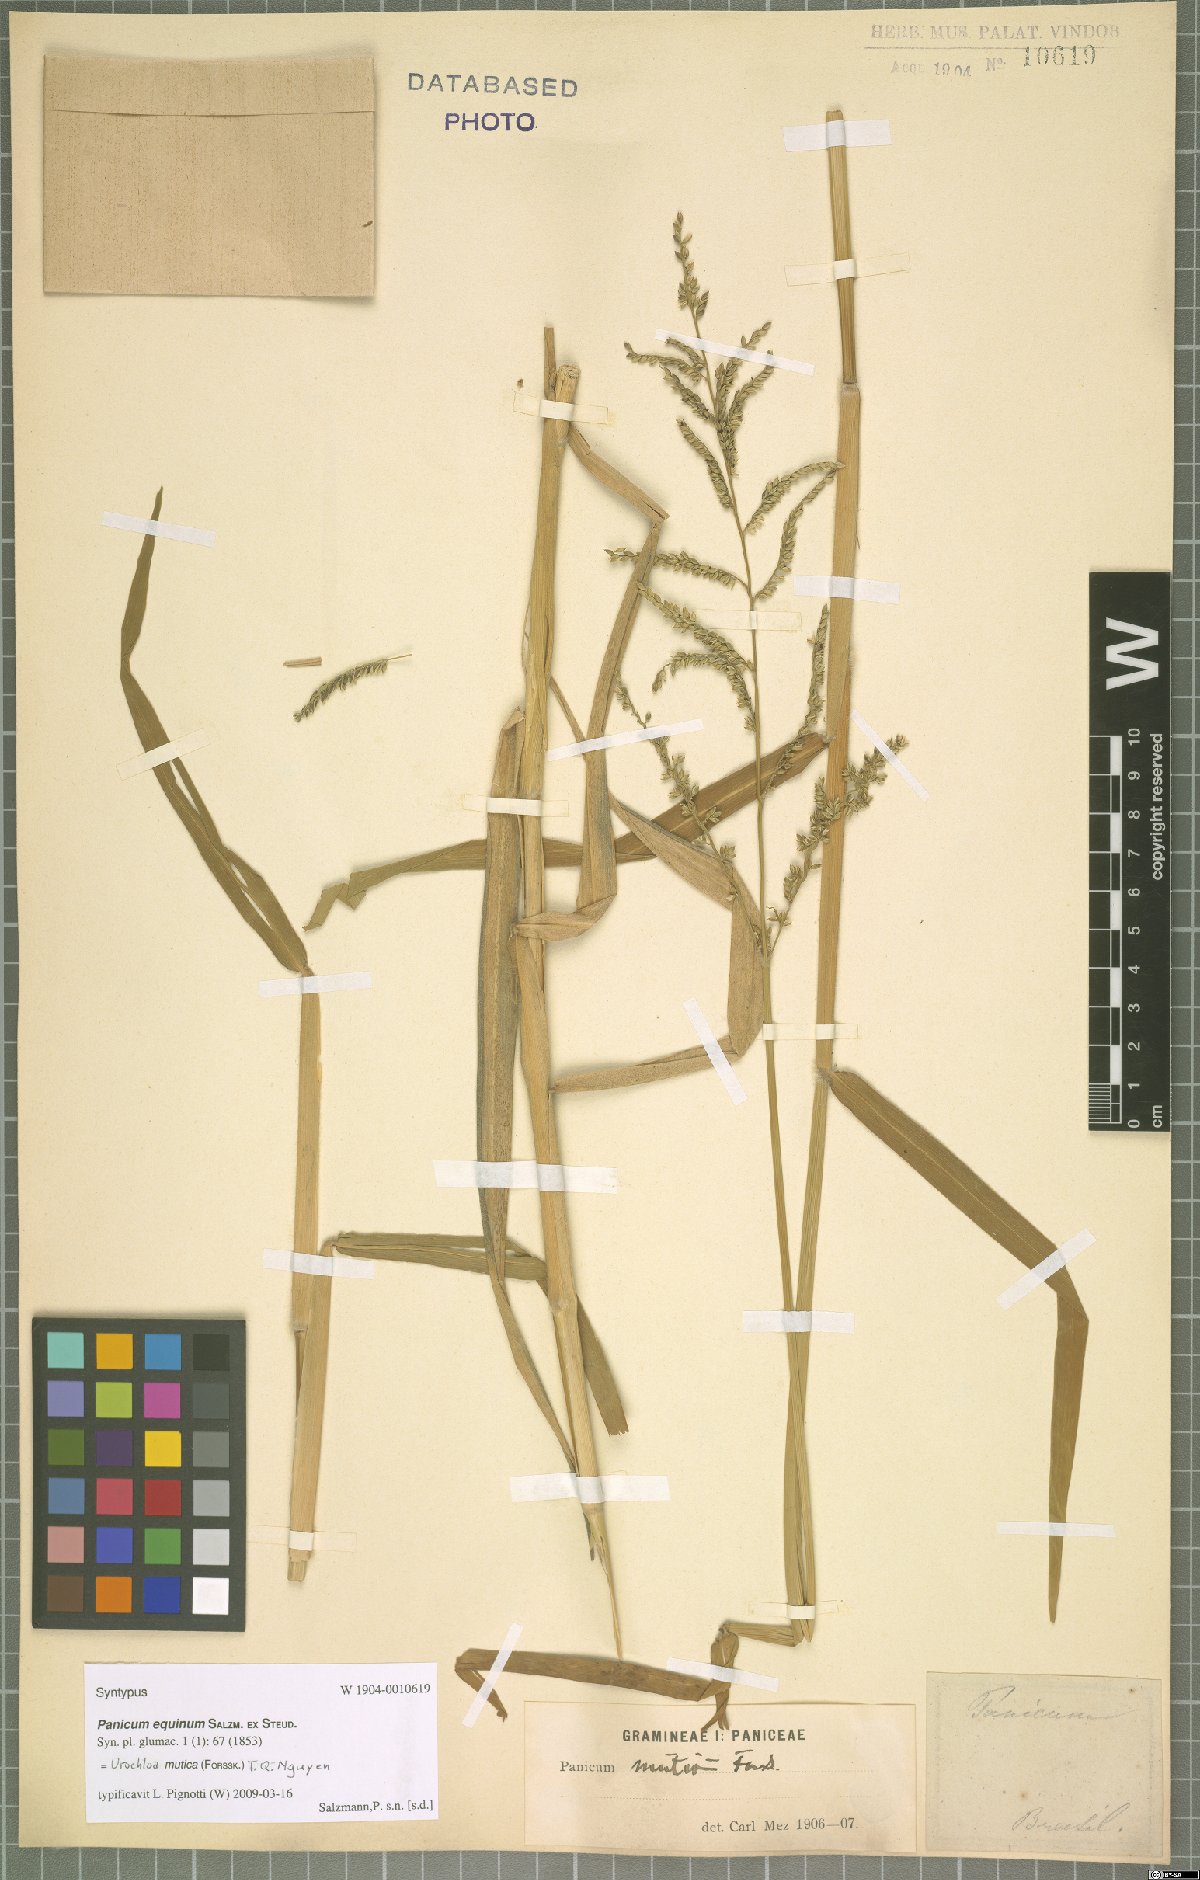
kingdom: Plantae
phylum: Tracheophyta
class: Liliopsida
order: Poales
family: Poaceae
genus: Urochloa
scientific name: Urochloa mutica
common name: Para grass
